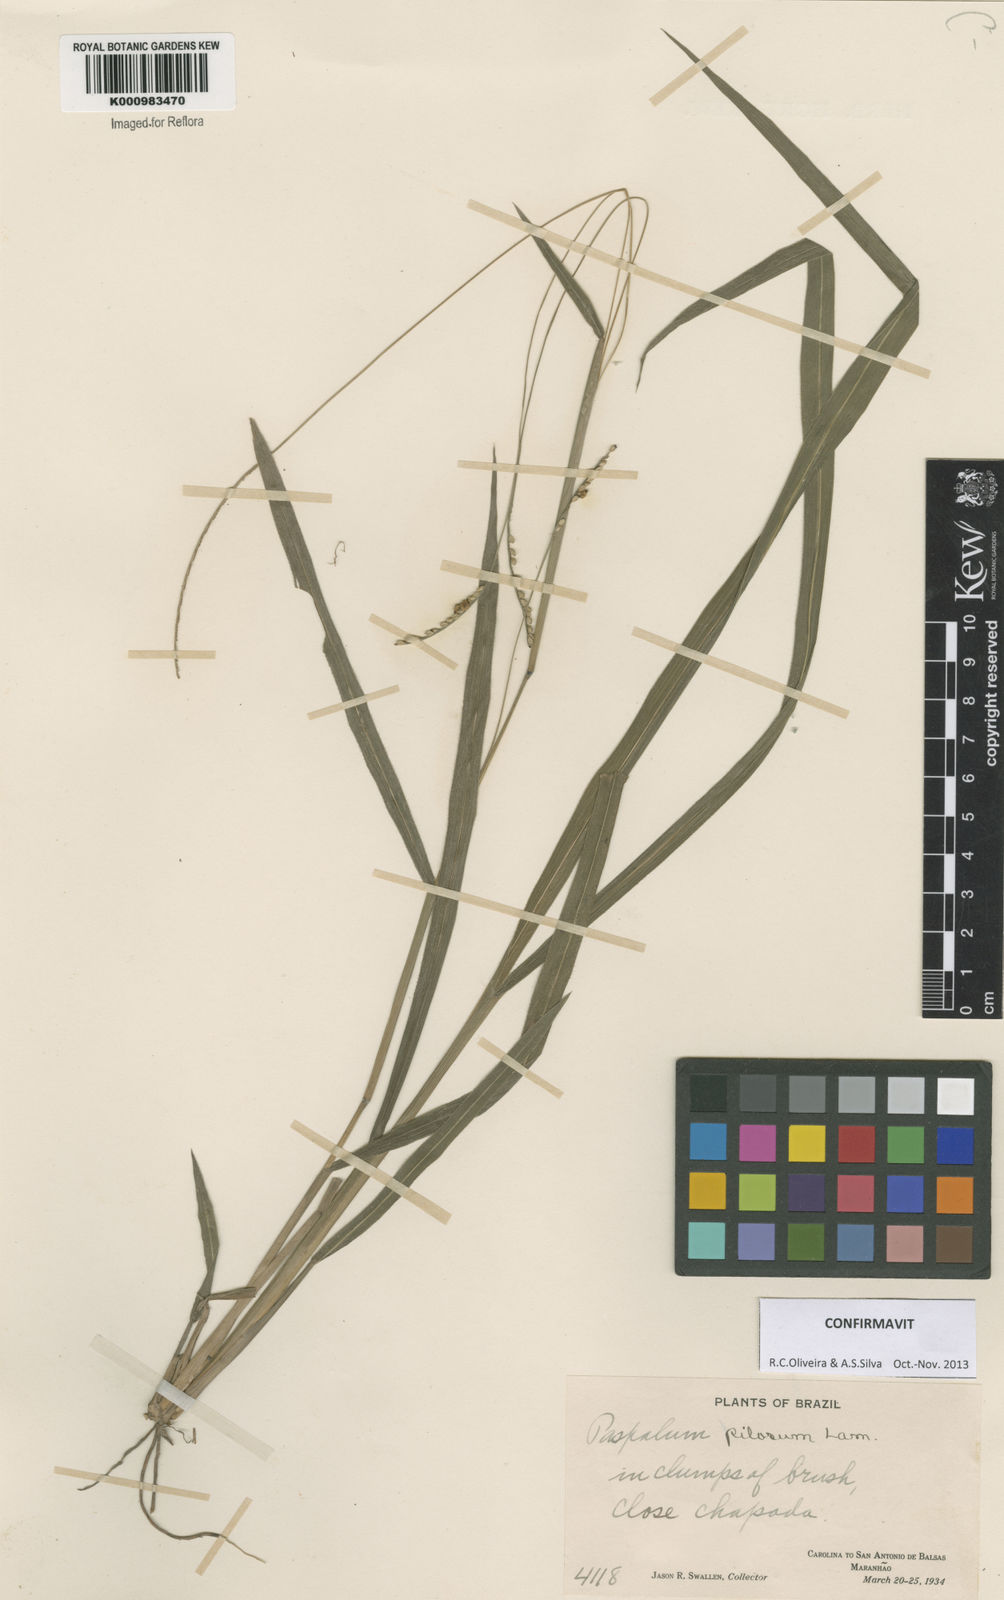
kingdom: Plantae
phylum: Tracheophyta
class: Liliopsida
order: Poales
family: Poaceae
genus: Paspalum
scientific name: Paspalum pilosum
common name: Crowngrass
